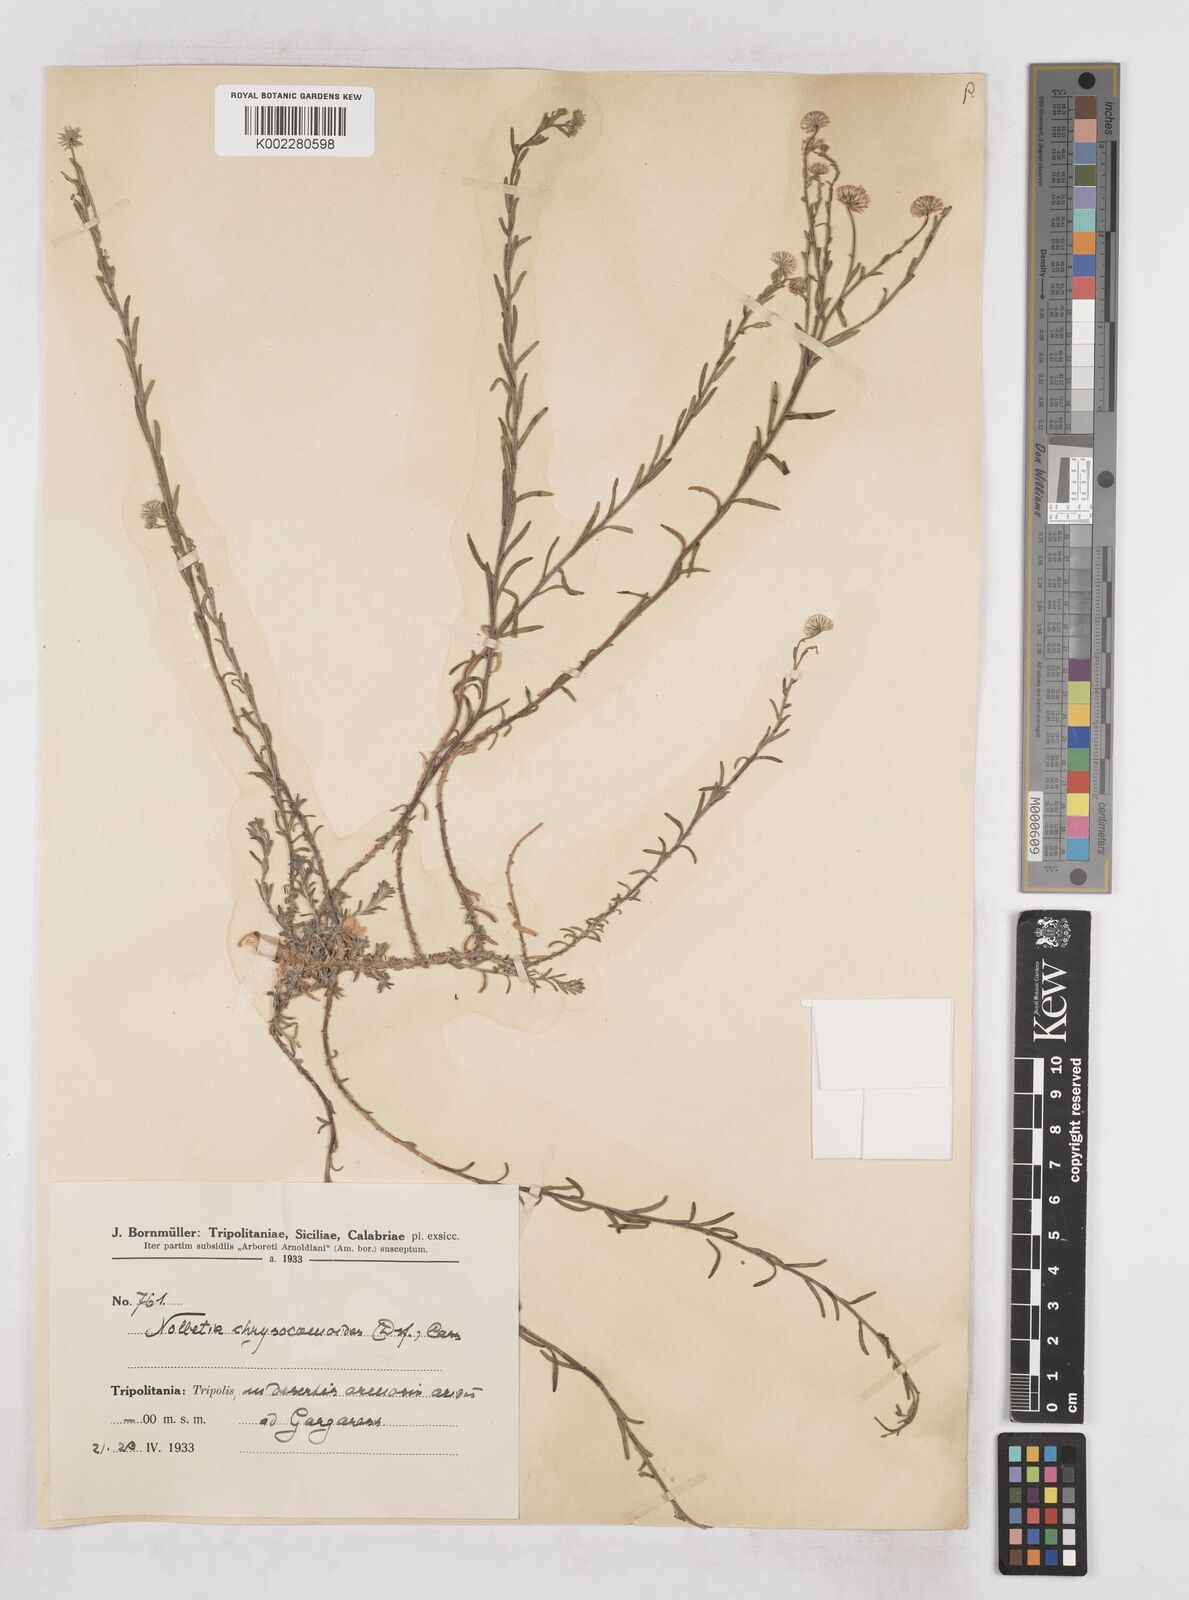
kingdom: Plantae
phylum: Tracheophyta
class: Magnoliopsida
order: Asterales
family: Asteraceae
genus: Nolletia
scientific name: Nolletia chrysocomoides
